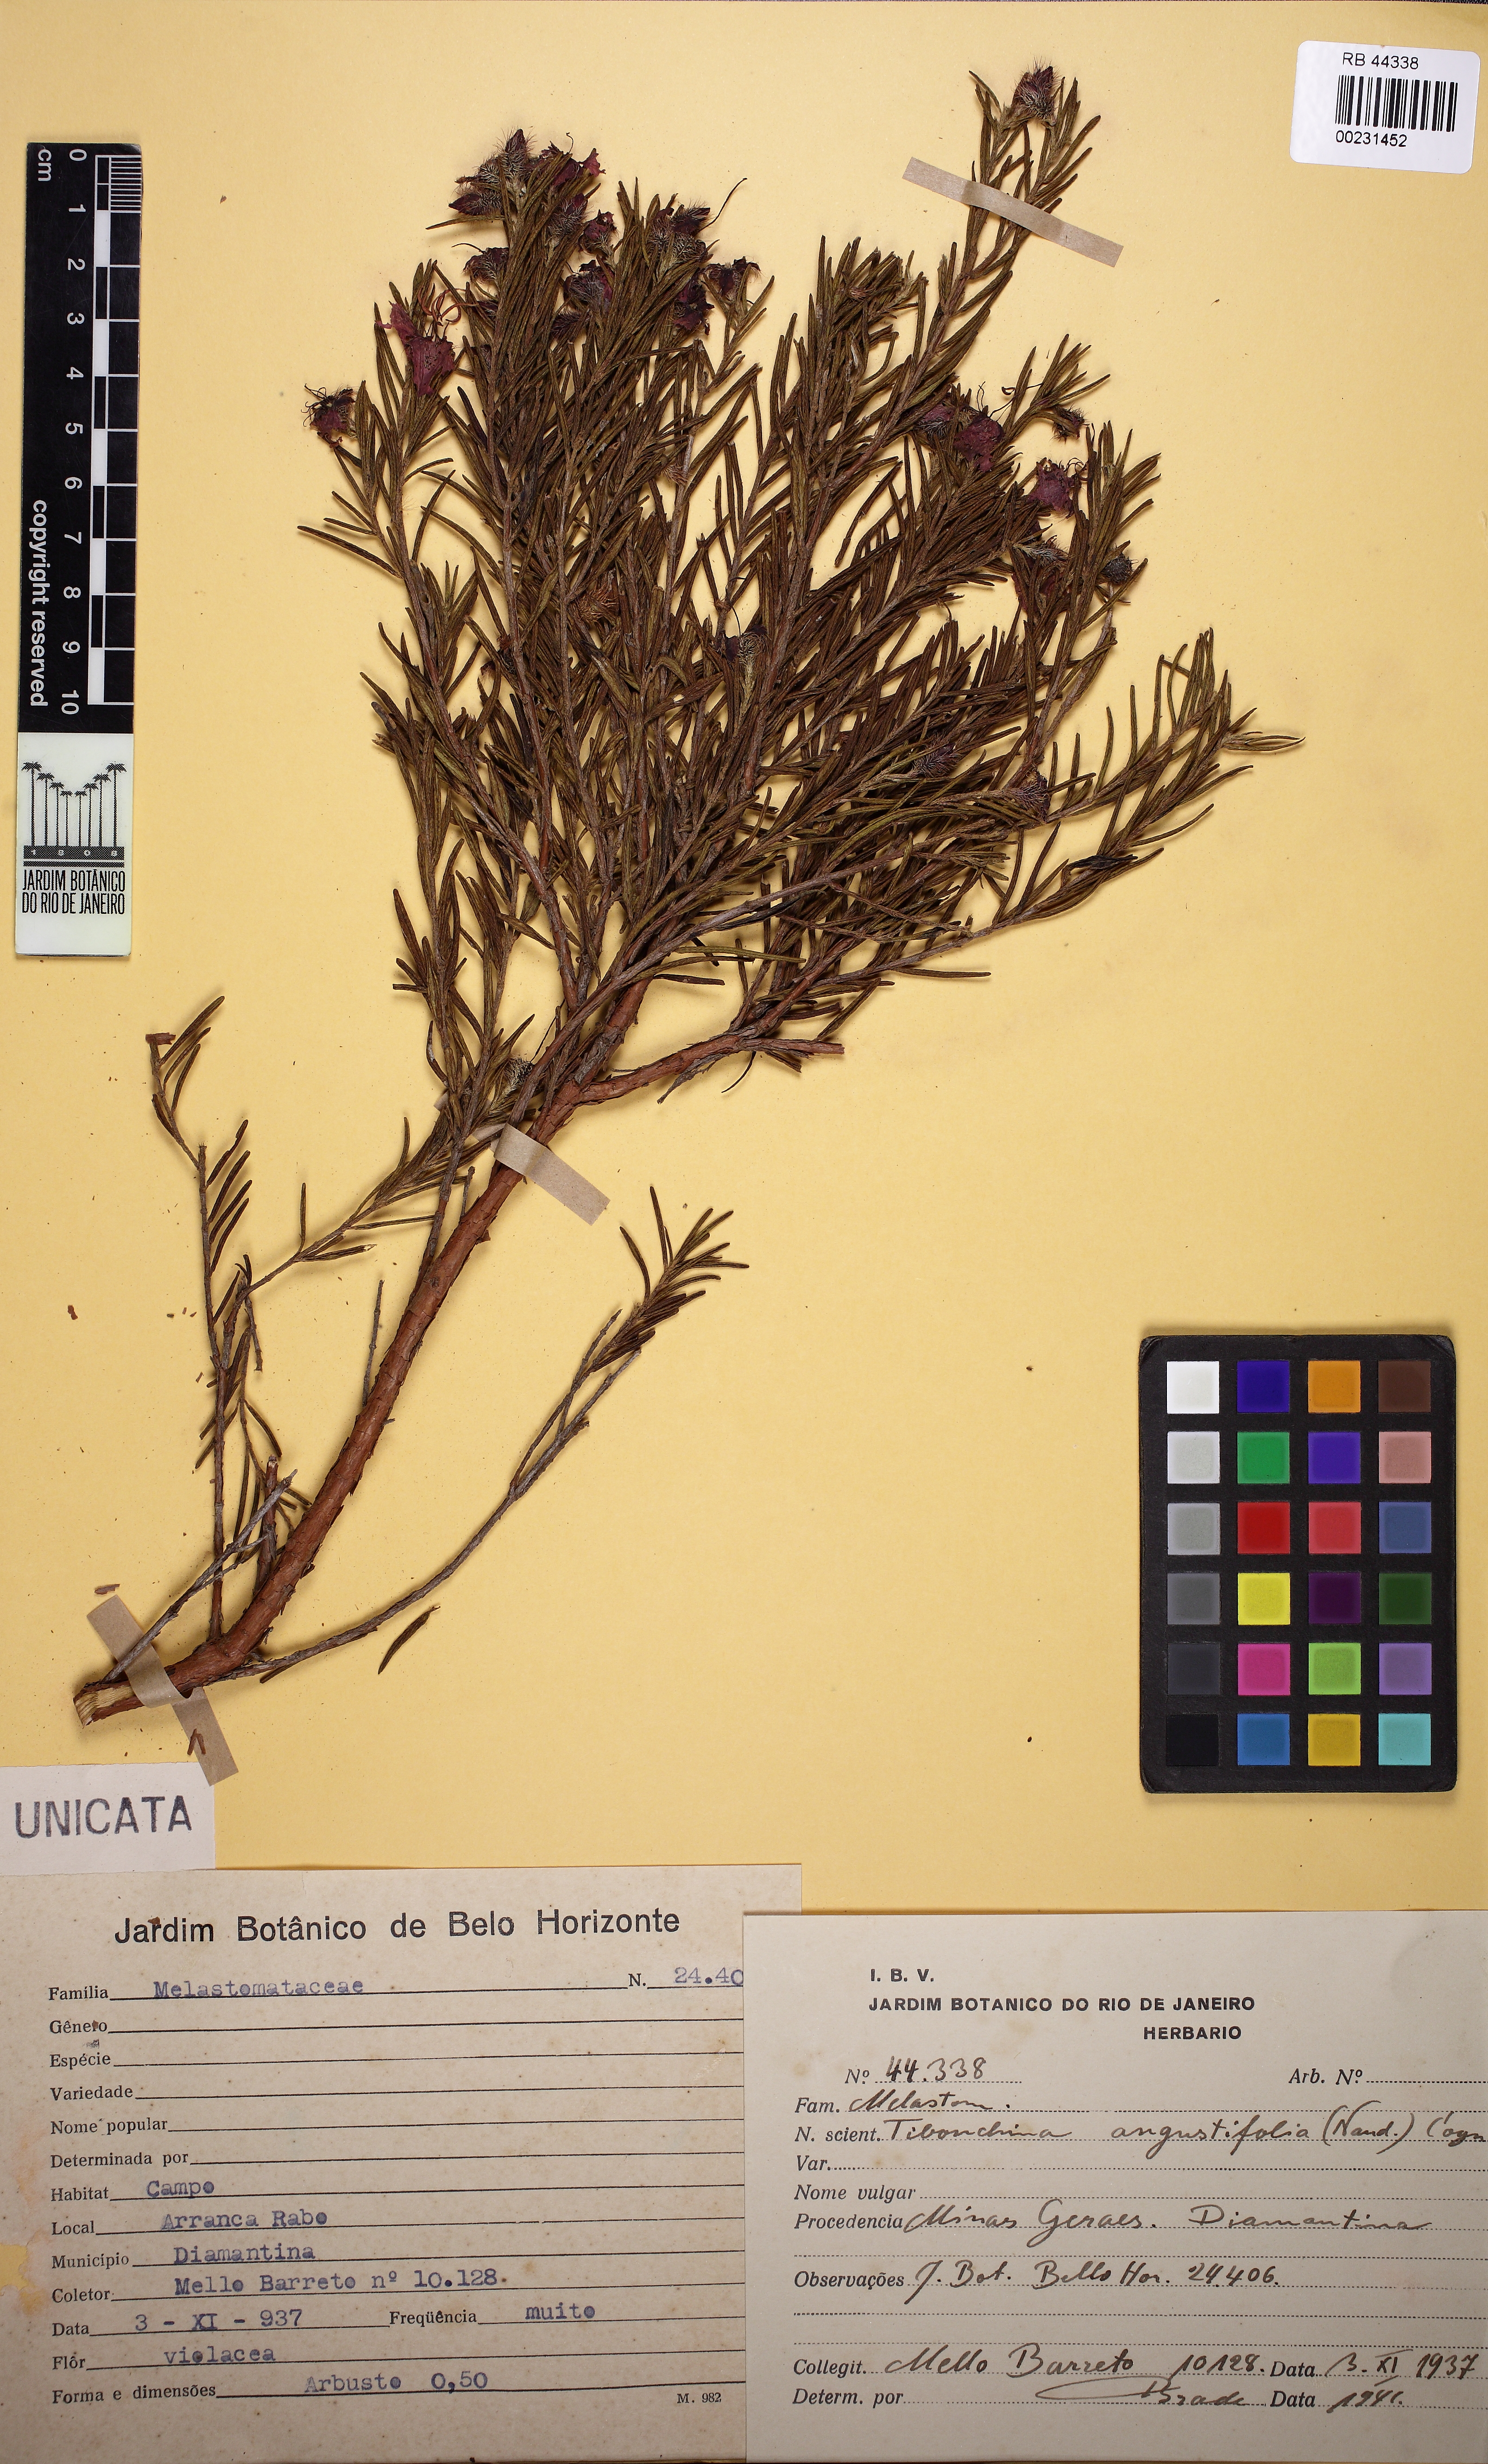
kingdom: Plantae
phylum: Tracheophyta
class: Magnoliopsida
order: Myrtales
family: Melastomataceae
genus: Pleroma
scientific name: Pleroma angustifolium
